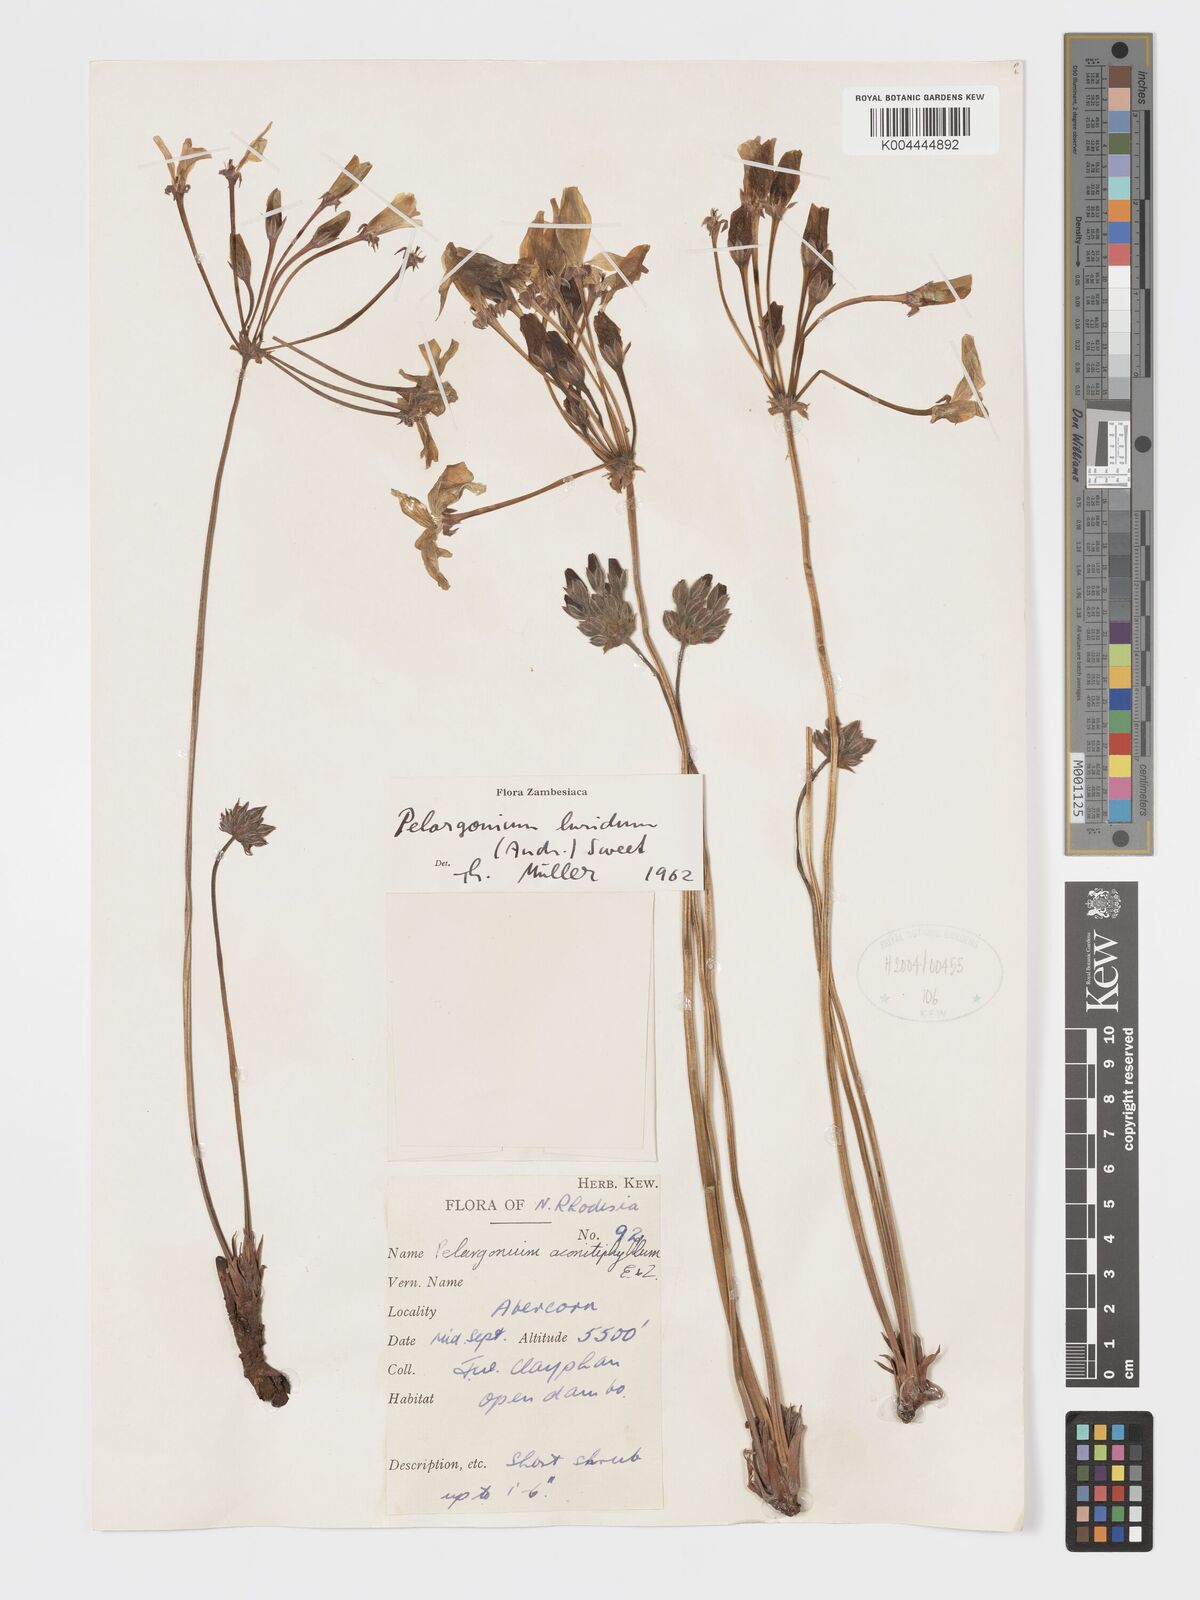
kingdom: Plantae
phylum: Tracheophyta
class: Magnoliopsida
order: Geraniales
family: Geraniaceae
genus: Pelargonium
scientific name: Pelargonium luridum
